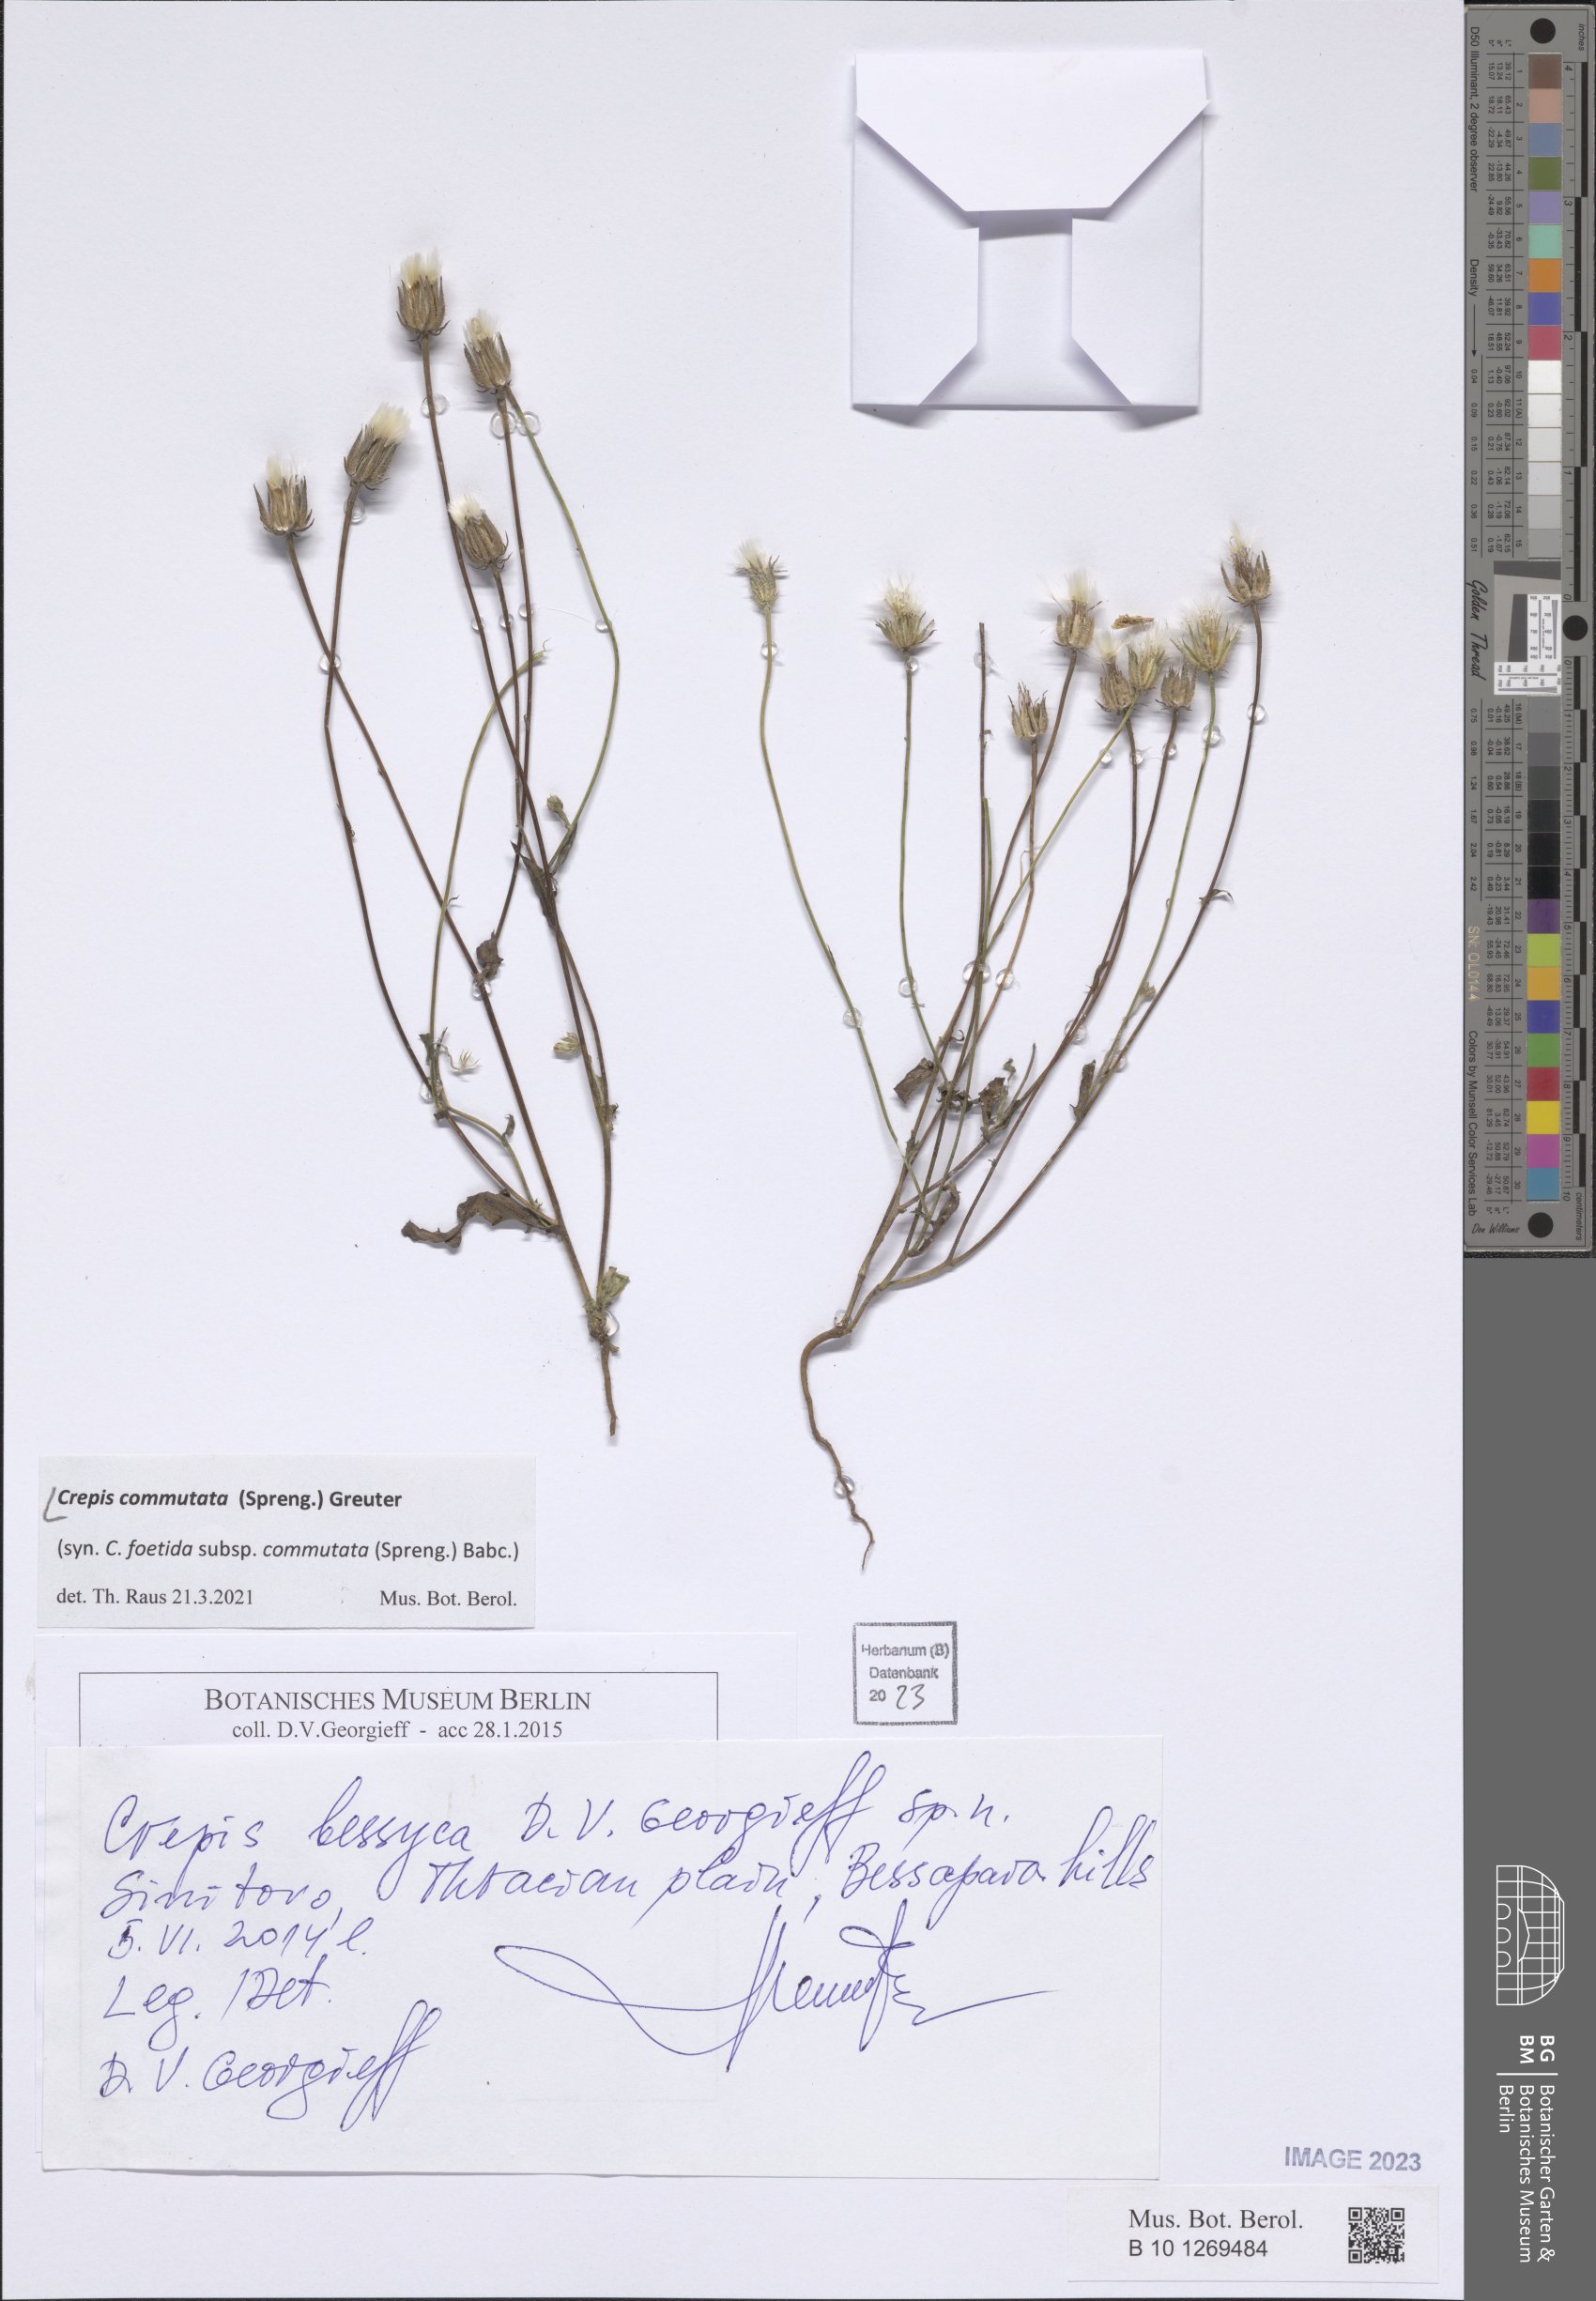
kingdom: Plantae
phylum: Tracheophyta
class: Magnoliopsida
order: Asterales
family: Asteraceae
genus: Crepis
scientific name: Crepis commutata
